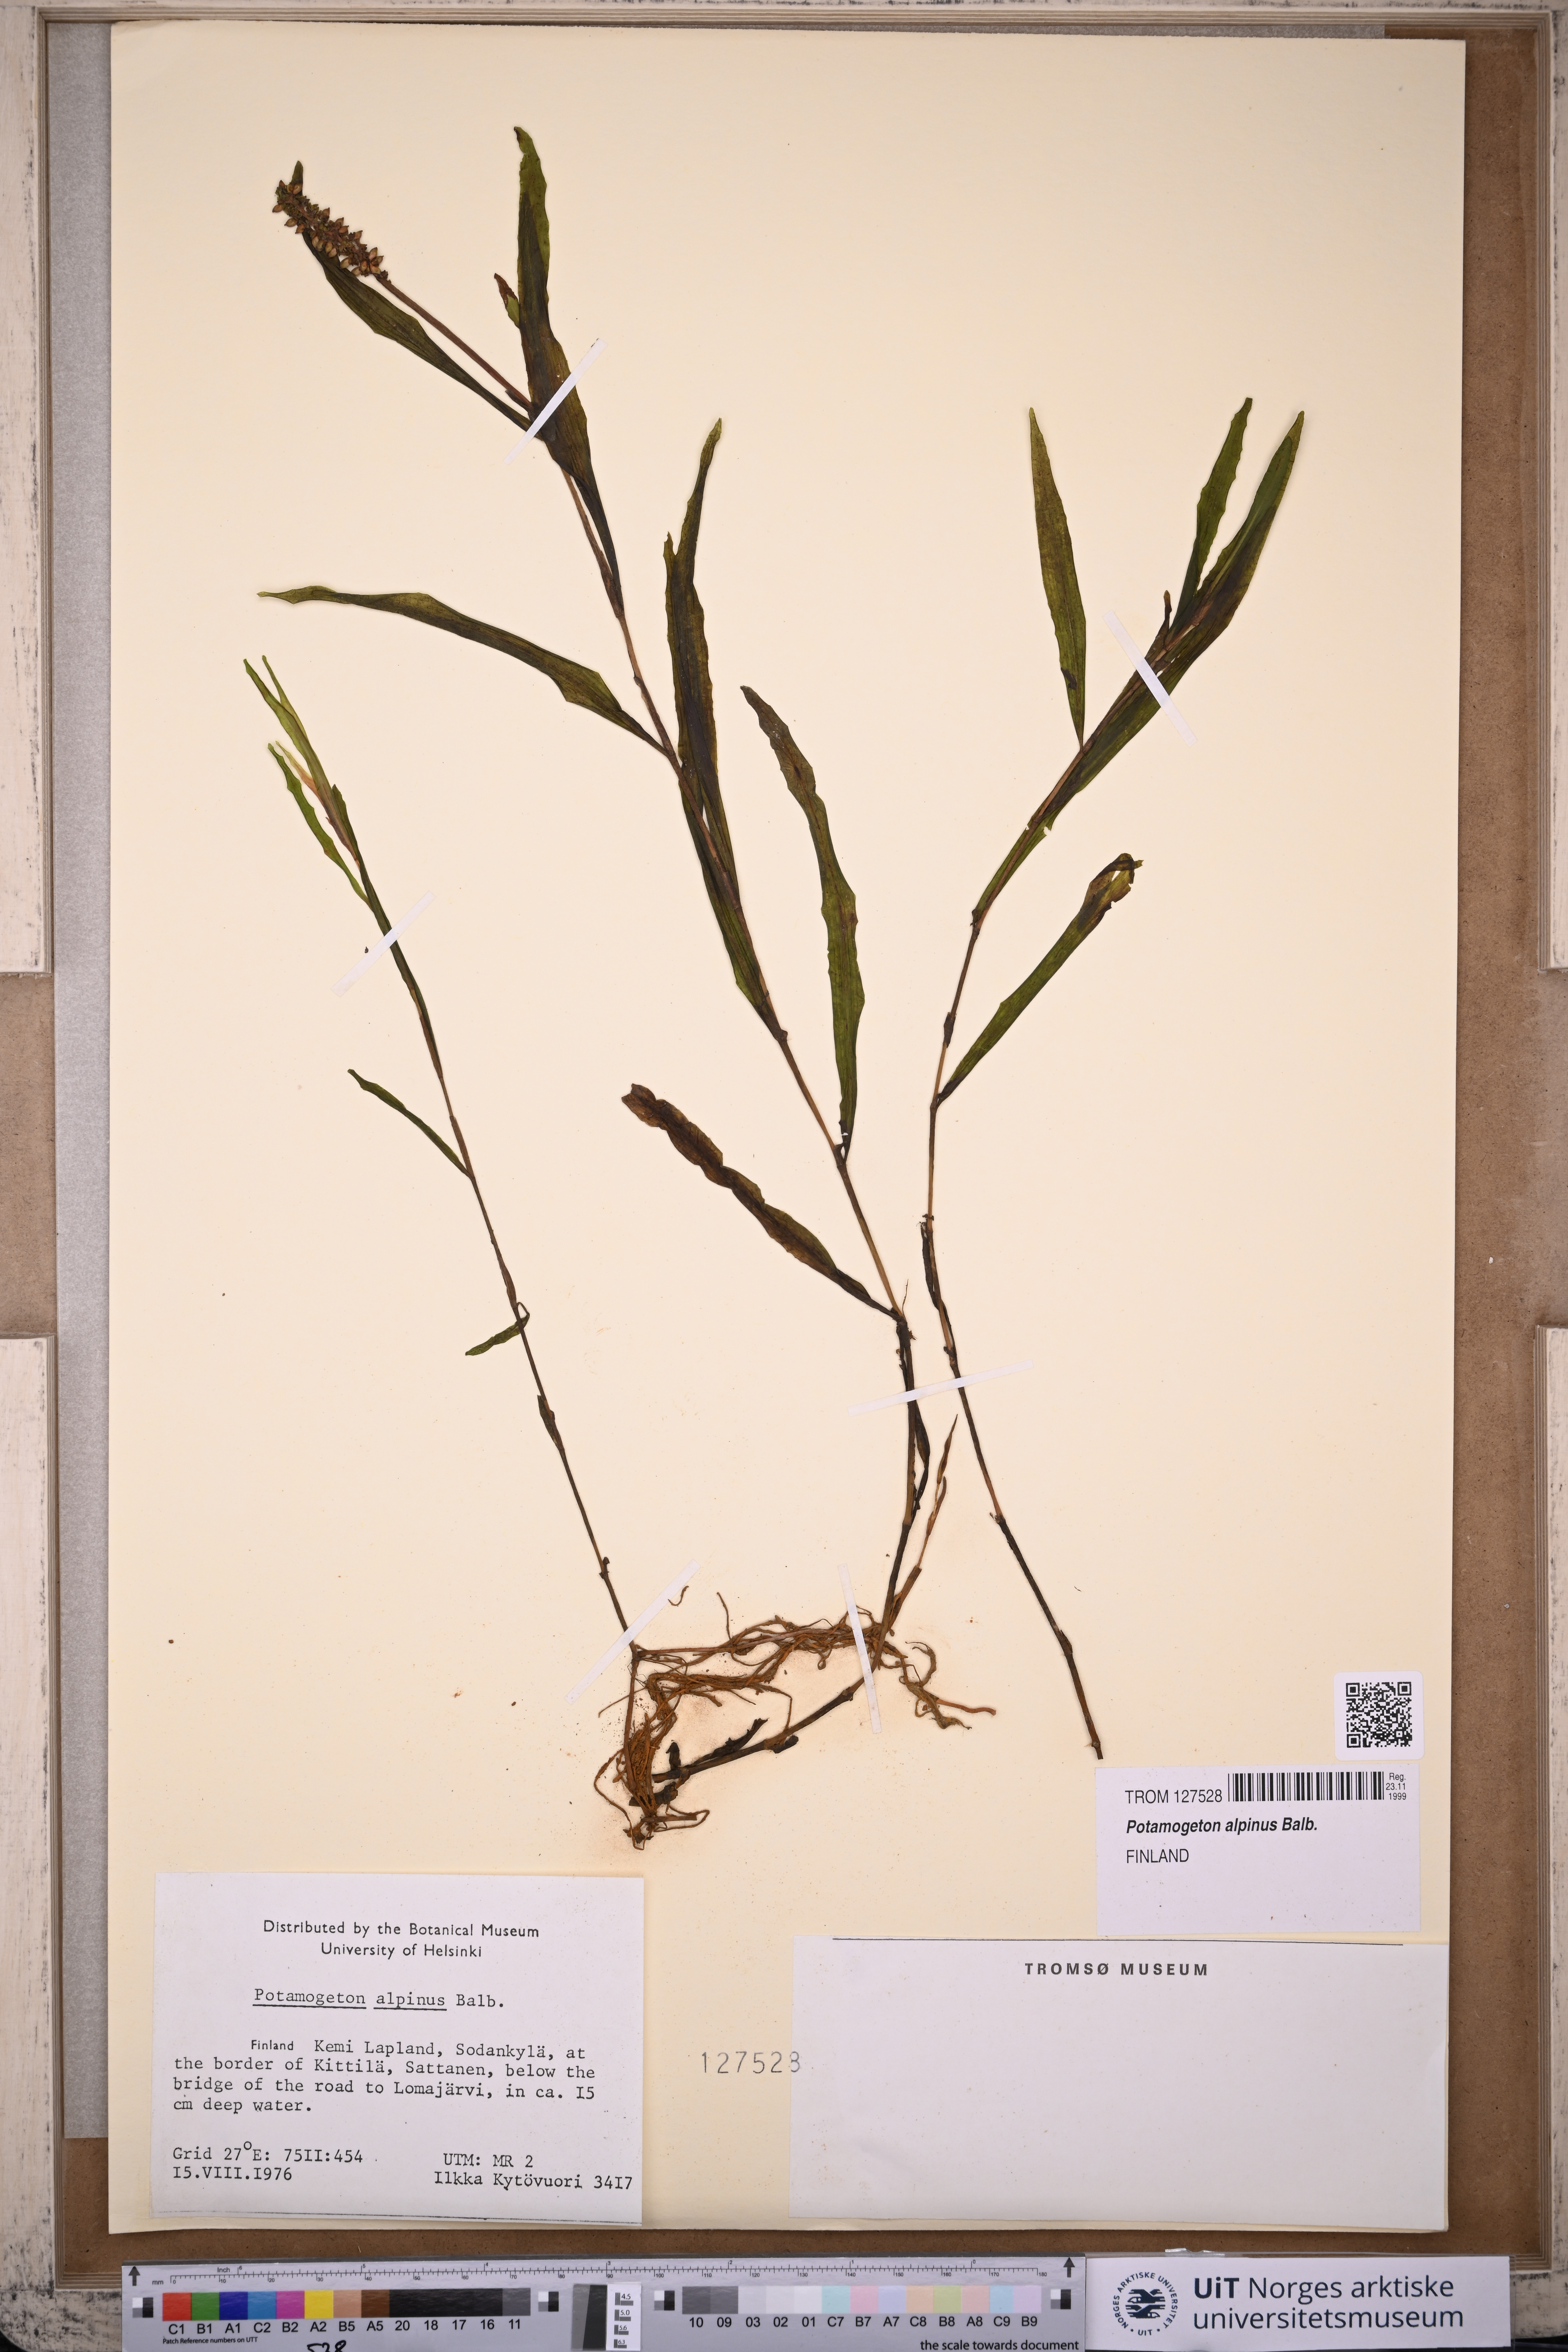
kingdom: Plantae
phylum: Tracheophyta
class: Liliopsida
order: Alismatales
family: Potamogetonaceae
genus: Potamogeton
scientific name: Potamogeton alpinus
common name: Red pondweed
